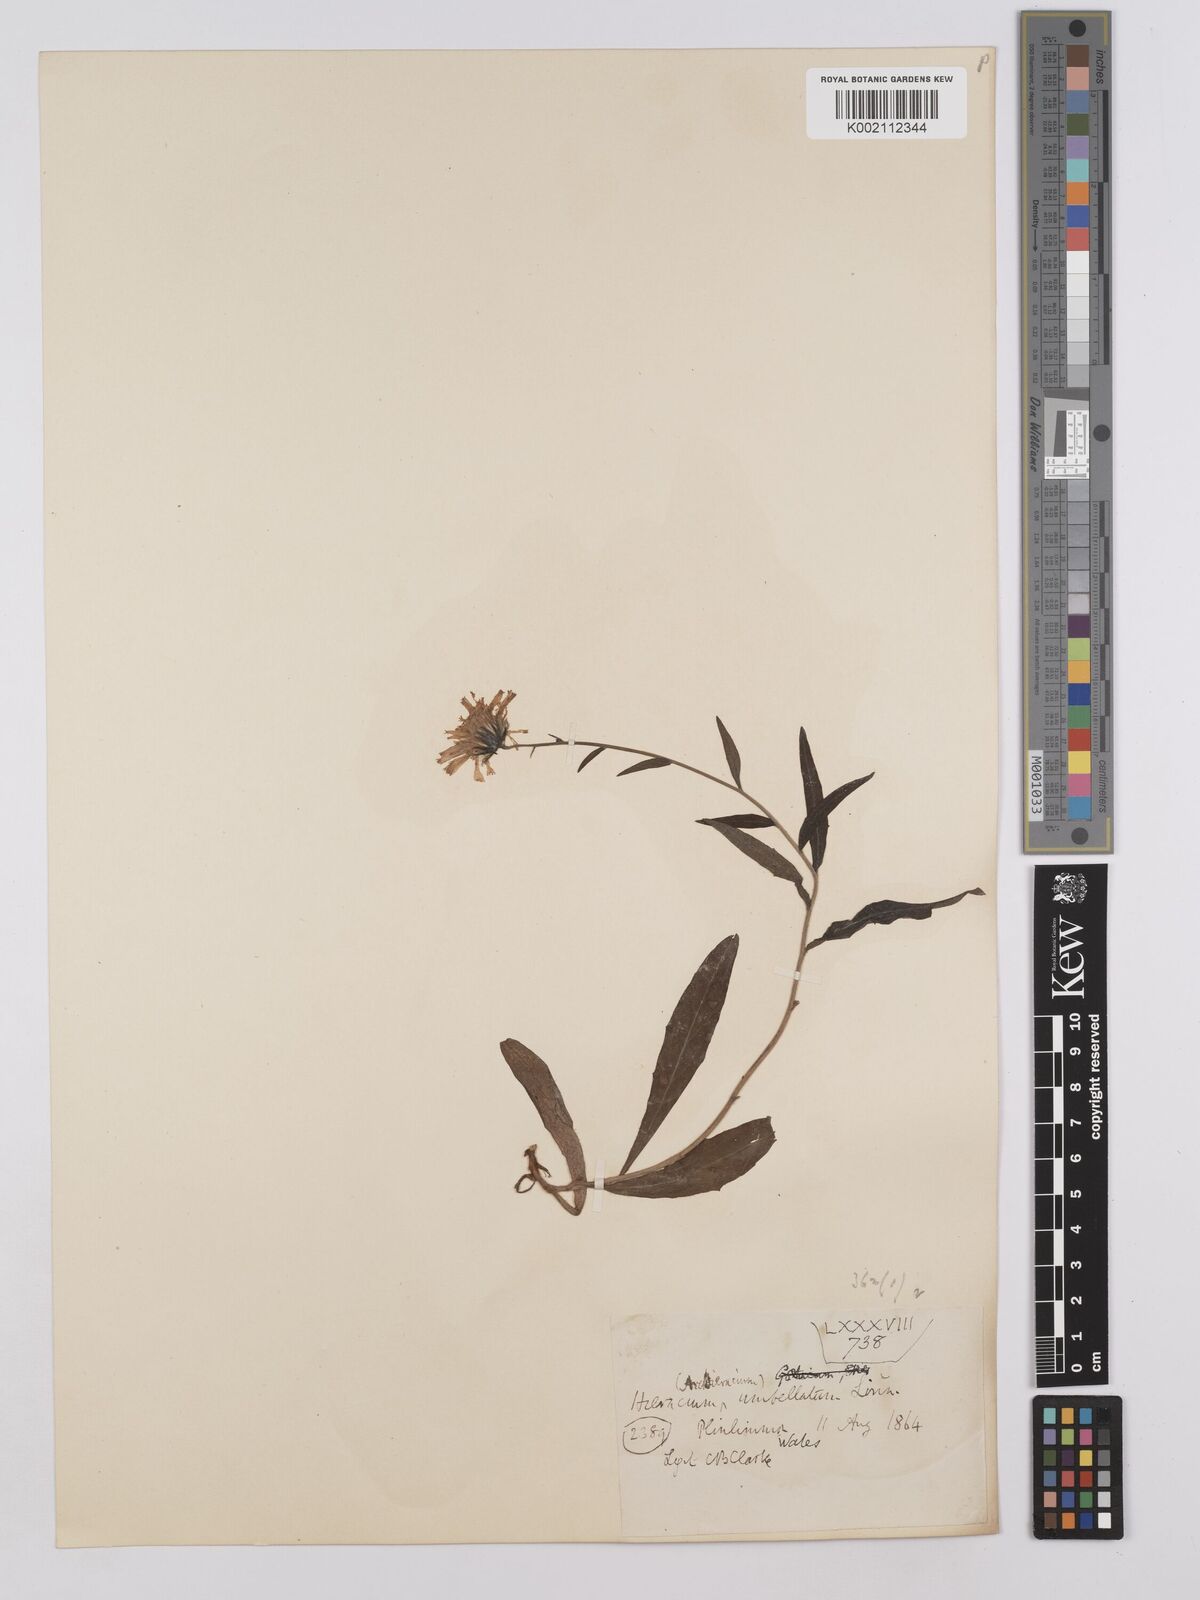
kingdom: Plantae
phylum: Tracheophyta
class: Magnoliopsida
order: Asterales
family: Asteraceae
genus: Hieracium
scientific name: Hieracium umbellatum
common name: Northern hawkweed
